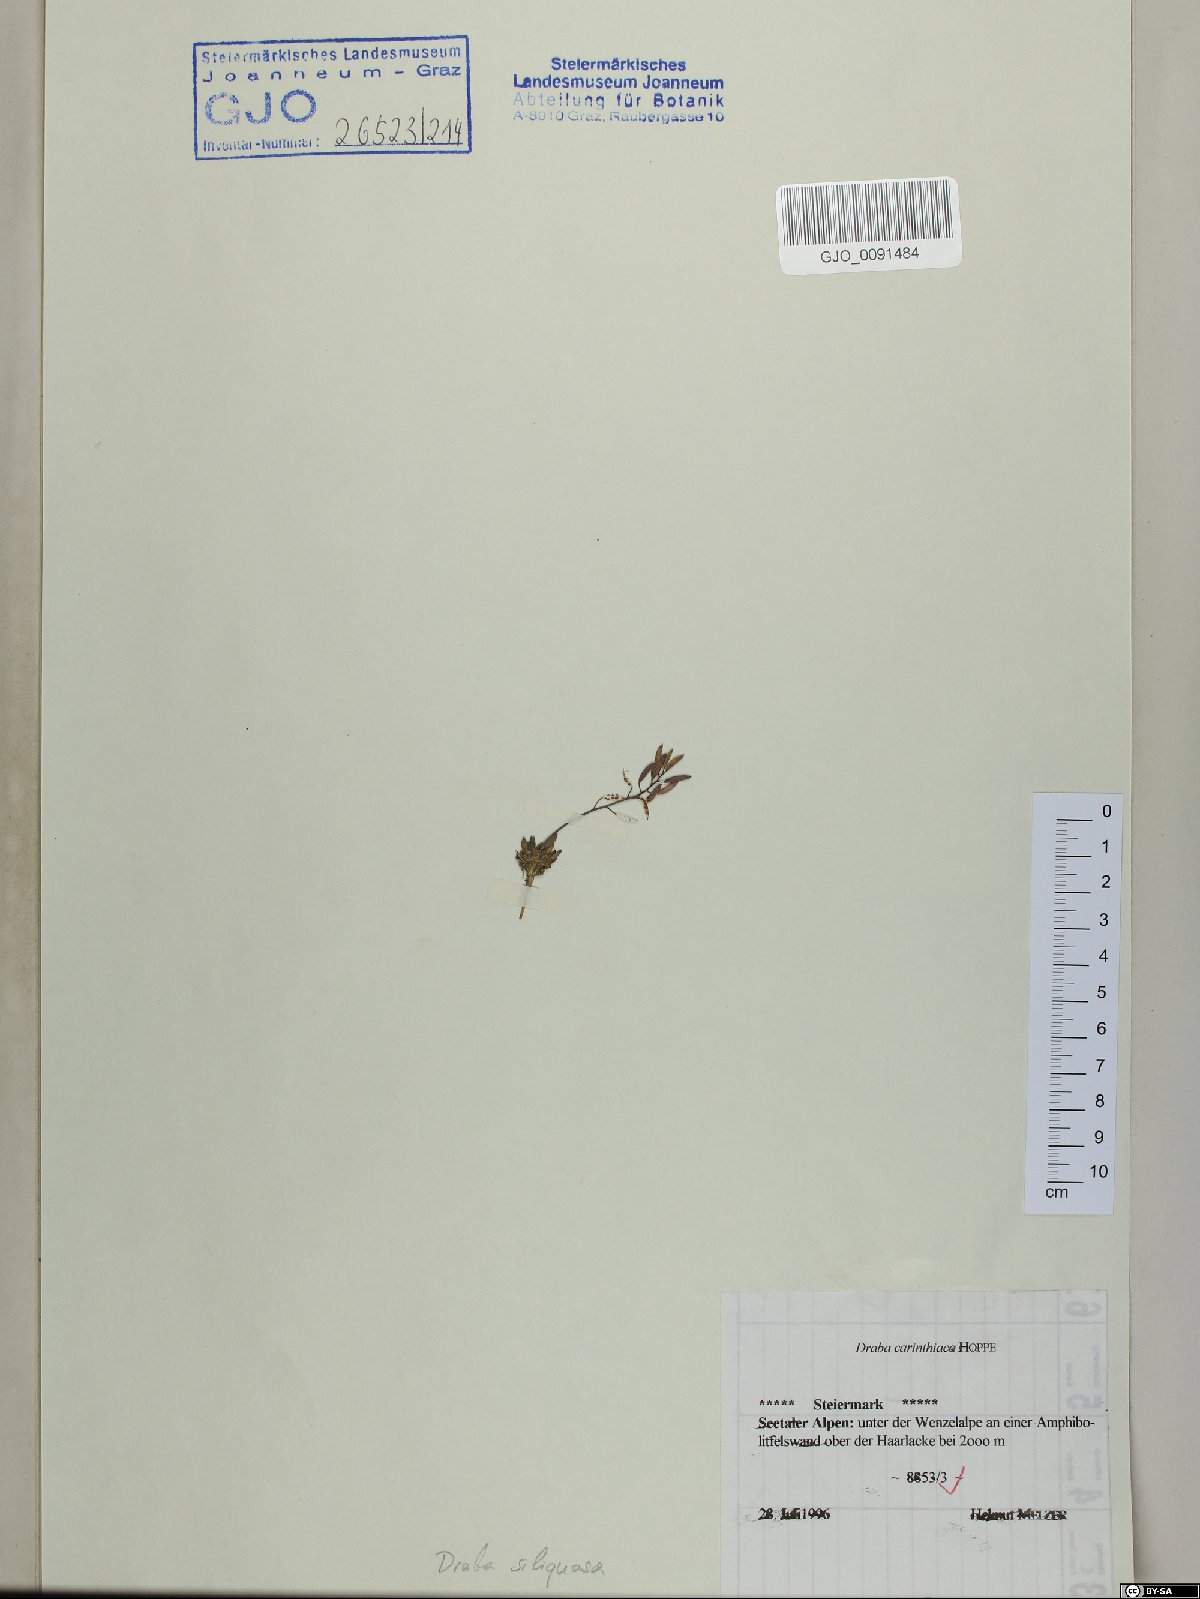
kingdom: Plantae
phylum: Tracheophyta
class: Magnoliopsida
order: Brassicales
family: Brassicaceae
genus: Draba
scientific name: Draba siliquosa
